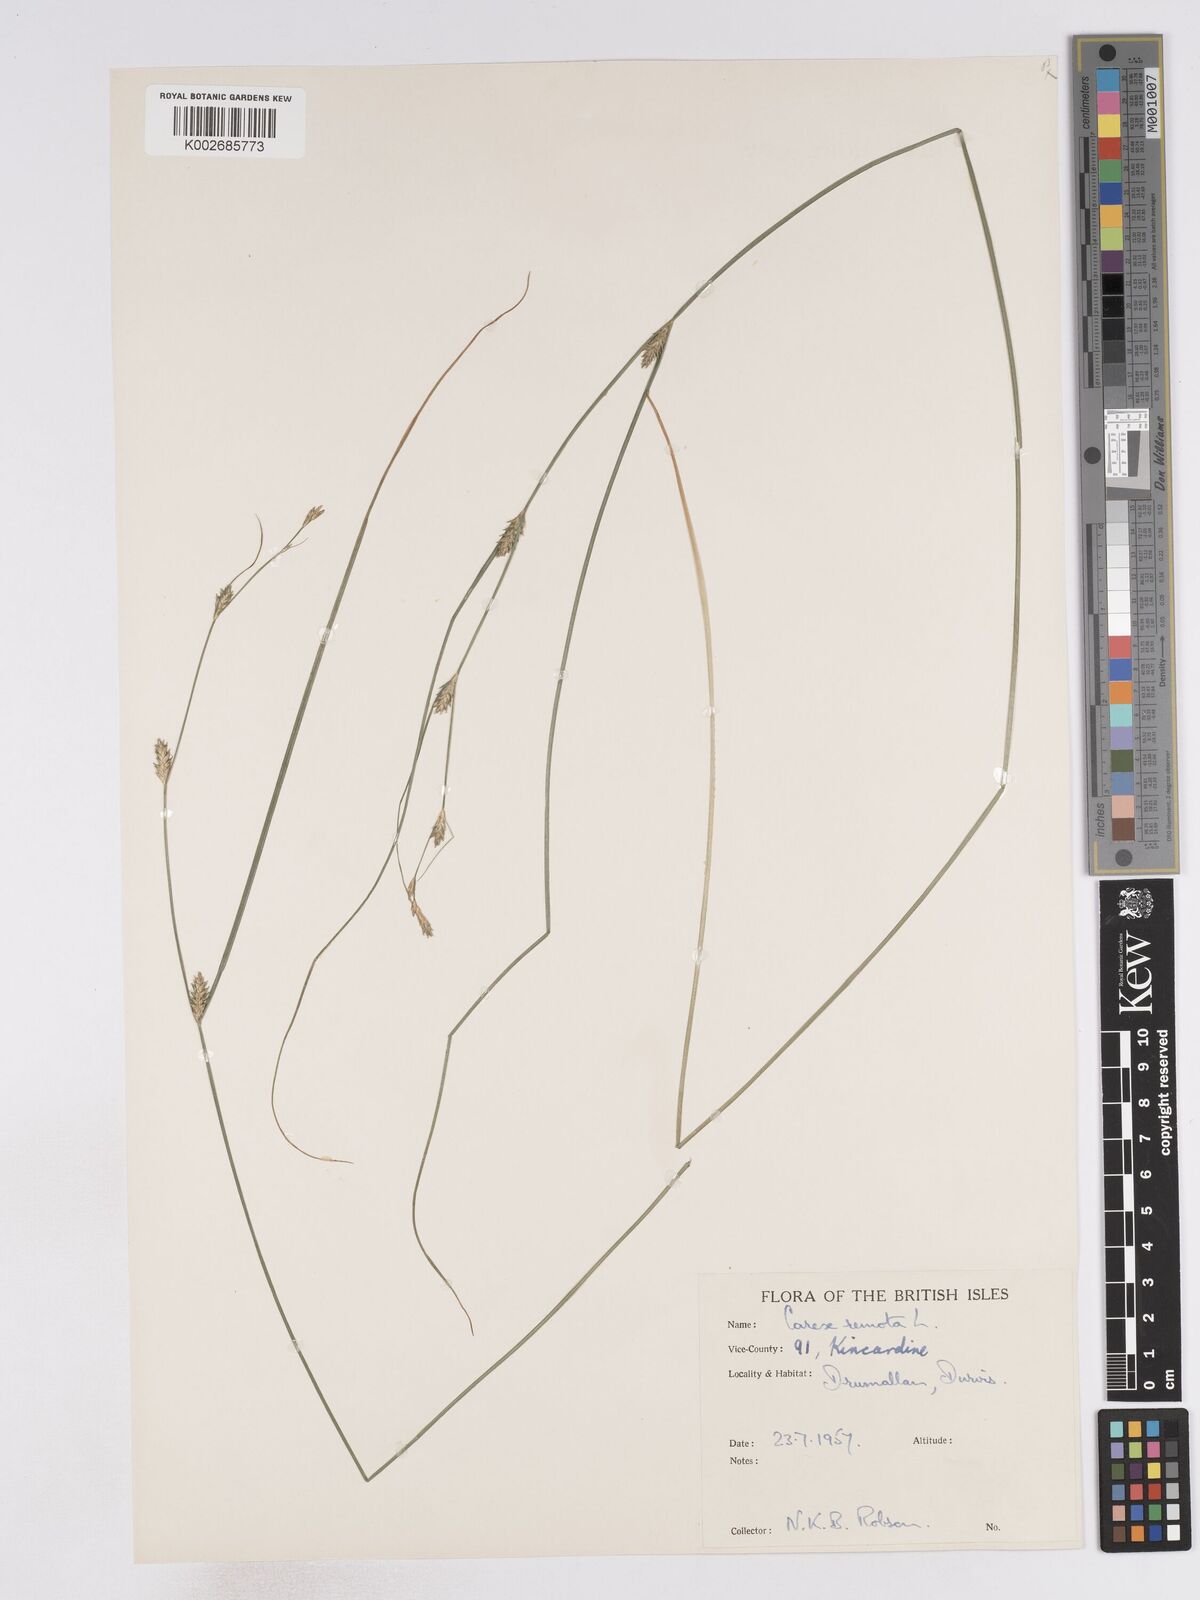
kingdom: Plantae
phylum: Tracheophyta
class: Liliopsida
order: Poales
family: Cyperaceae
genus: Carex
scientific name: Carex remota
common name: Remote sedge
